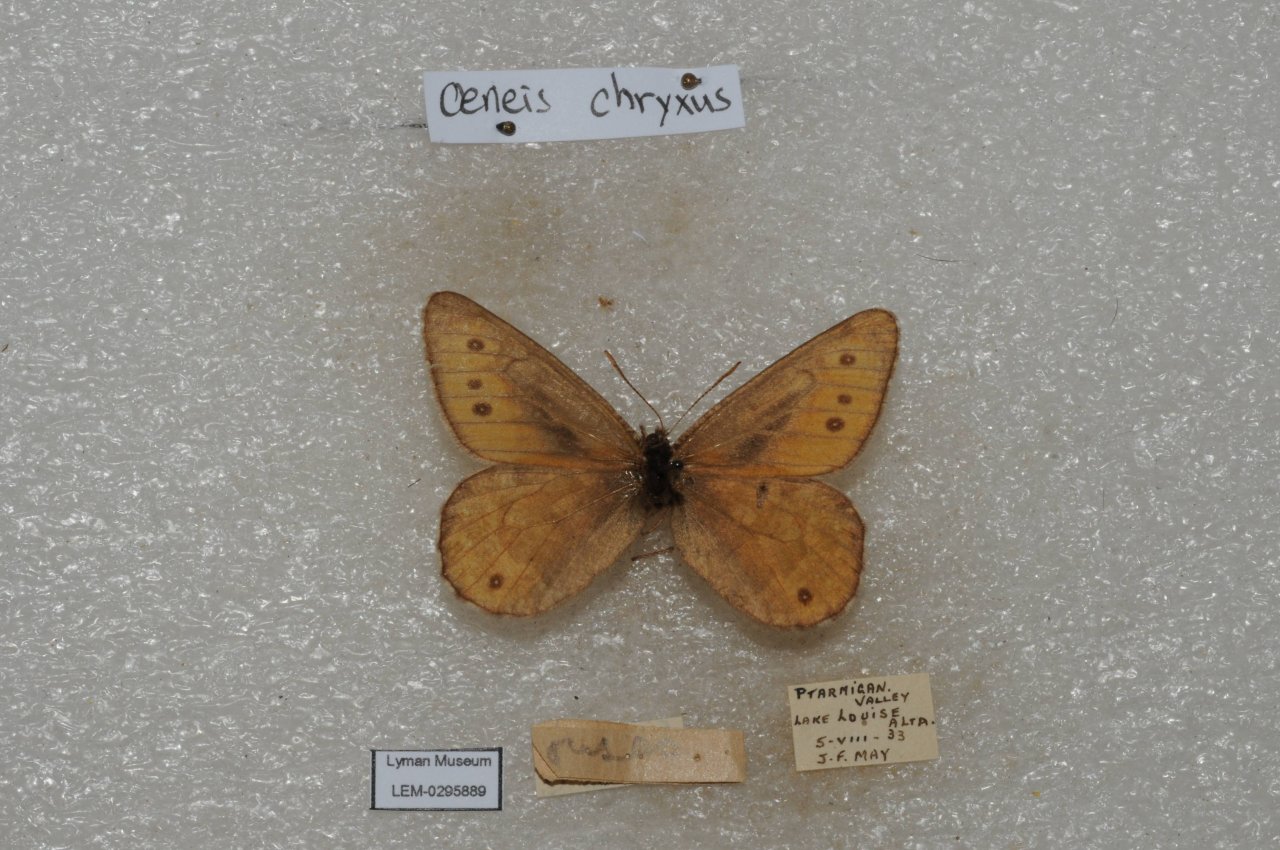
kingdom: Animalia
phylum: Arthropoda
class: Insecta
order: Lepidoptera
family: Nymphalidae
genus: Oeneis
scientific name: Oeneis chryxus
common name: Chryxus Arctic
